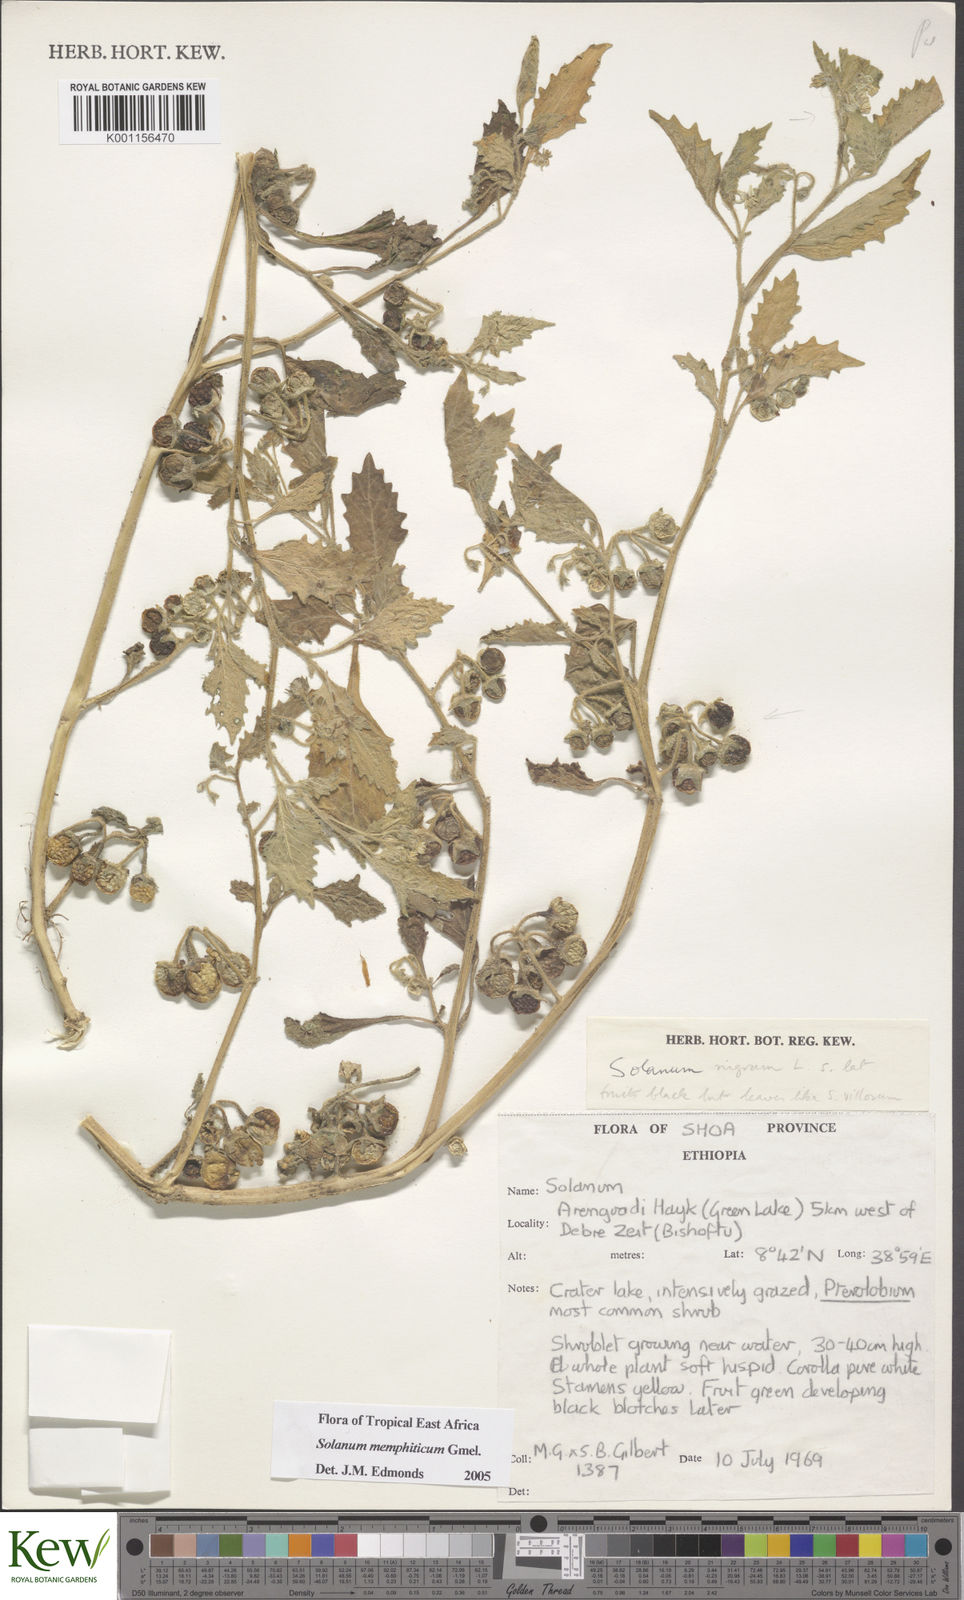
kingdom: Plantae
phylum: Tracheophyta
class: Magnoliopsida
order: Solanales
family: Solanaceae
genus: Solanum
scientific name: Solanum memphiticum
